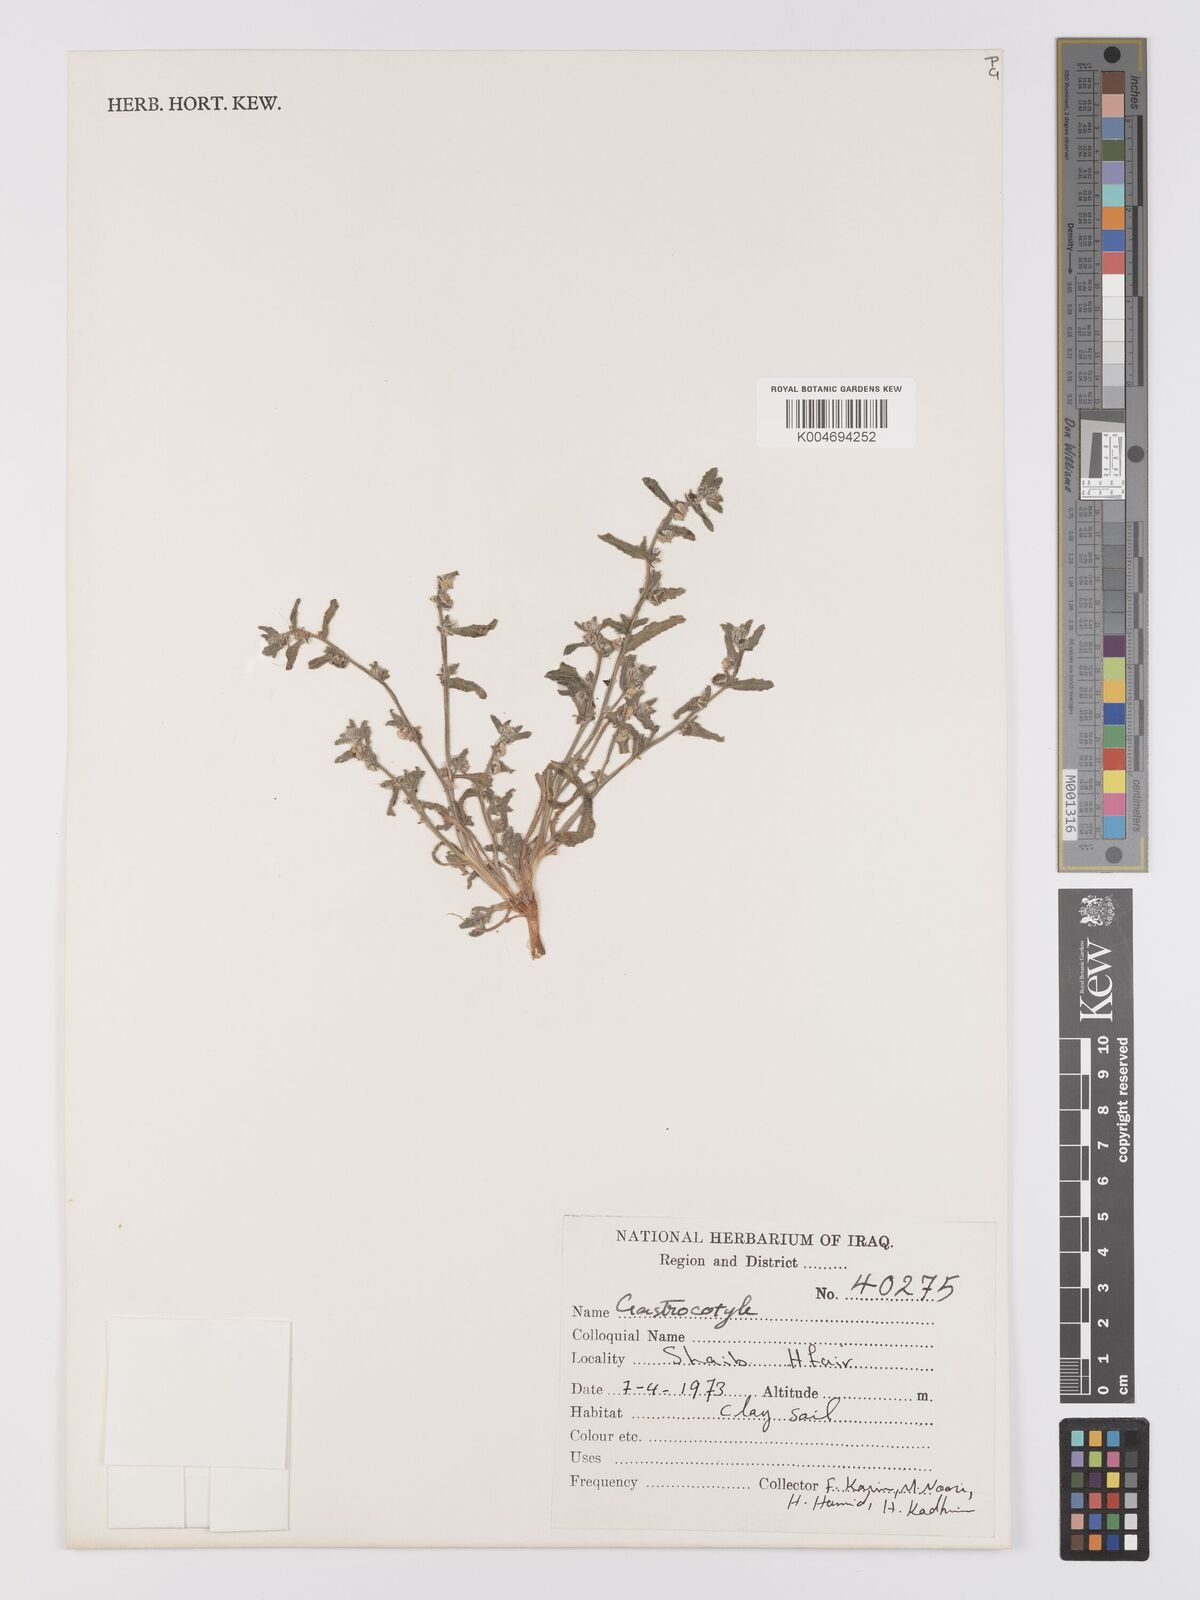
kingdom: Plantae
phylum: Tracheophyta
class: Magnoliopsida
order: Boraginales
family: Boraginaceae
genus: Gastrocotyle
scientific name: Gastrocotyle hispida
